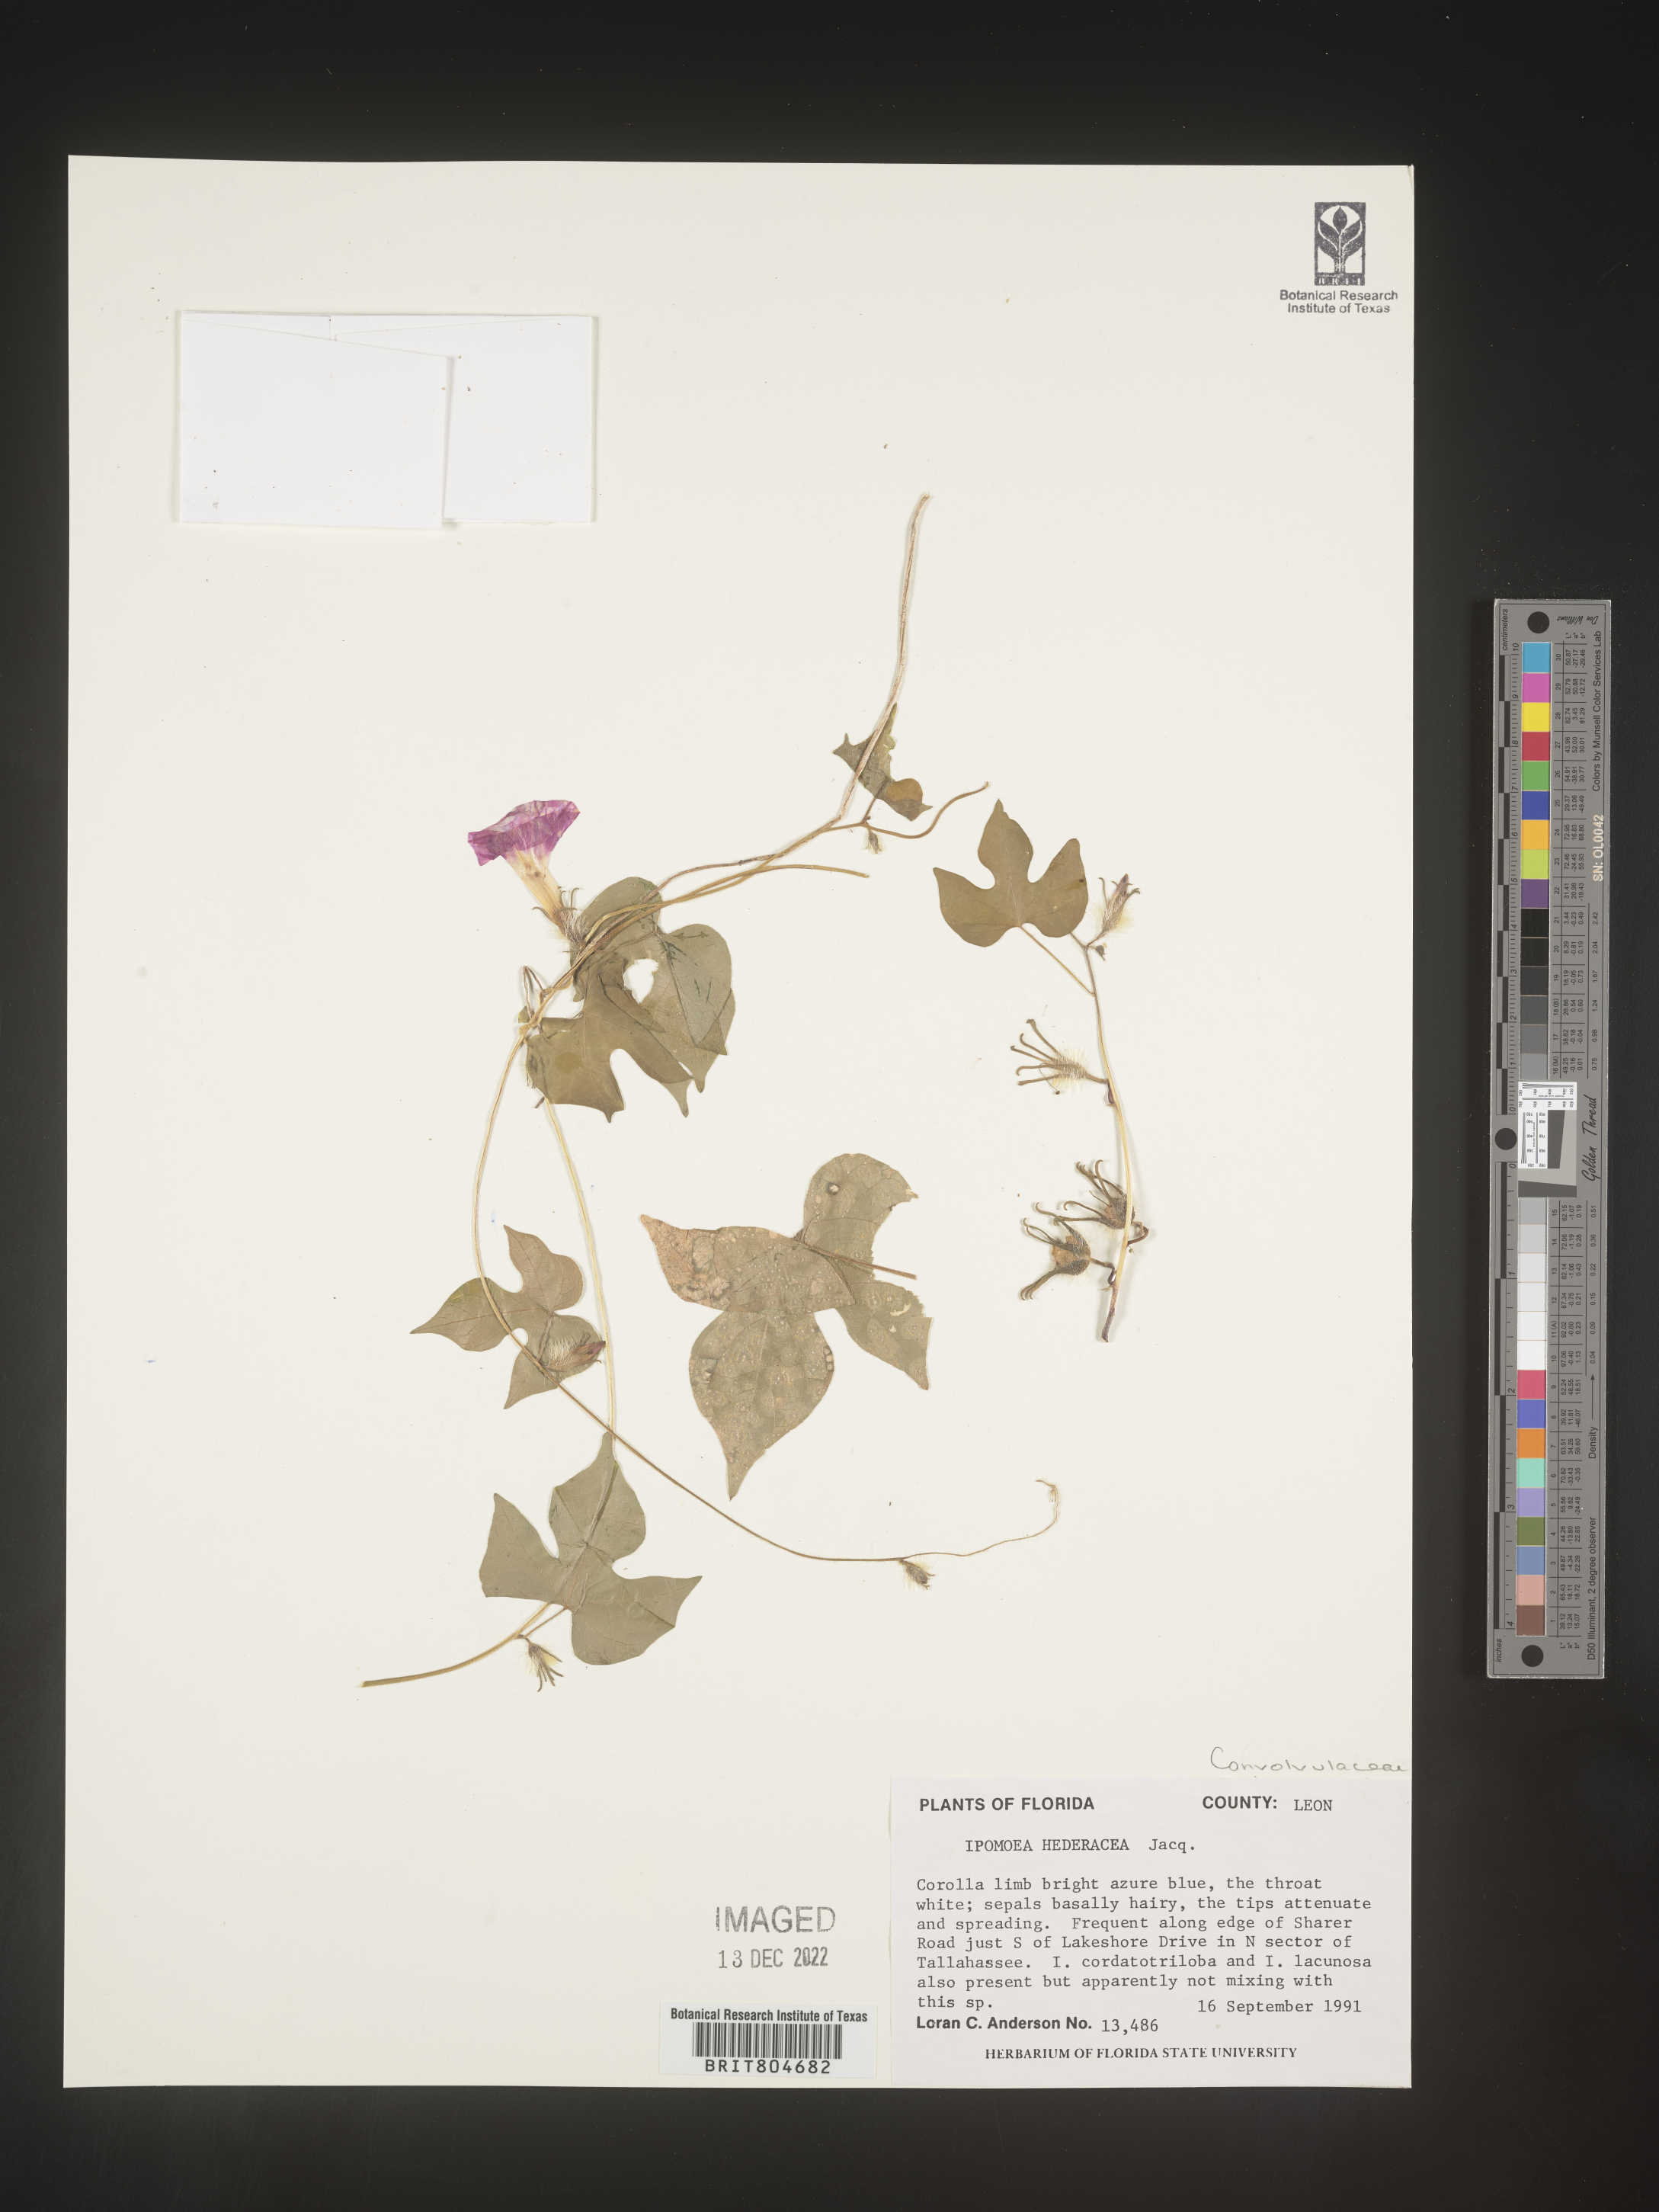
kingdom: Plantae
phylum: Tracheophyta
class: Magnoliopsida
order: Solanales
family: Convolvulaceae
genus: Ipomoea
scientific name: Ipomoea hederacea
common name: Ivy-leaved morning-glory
